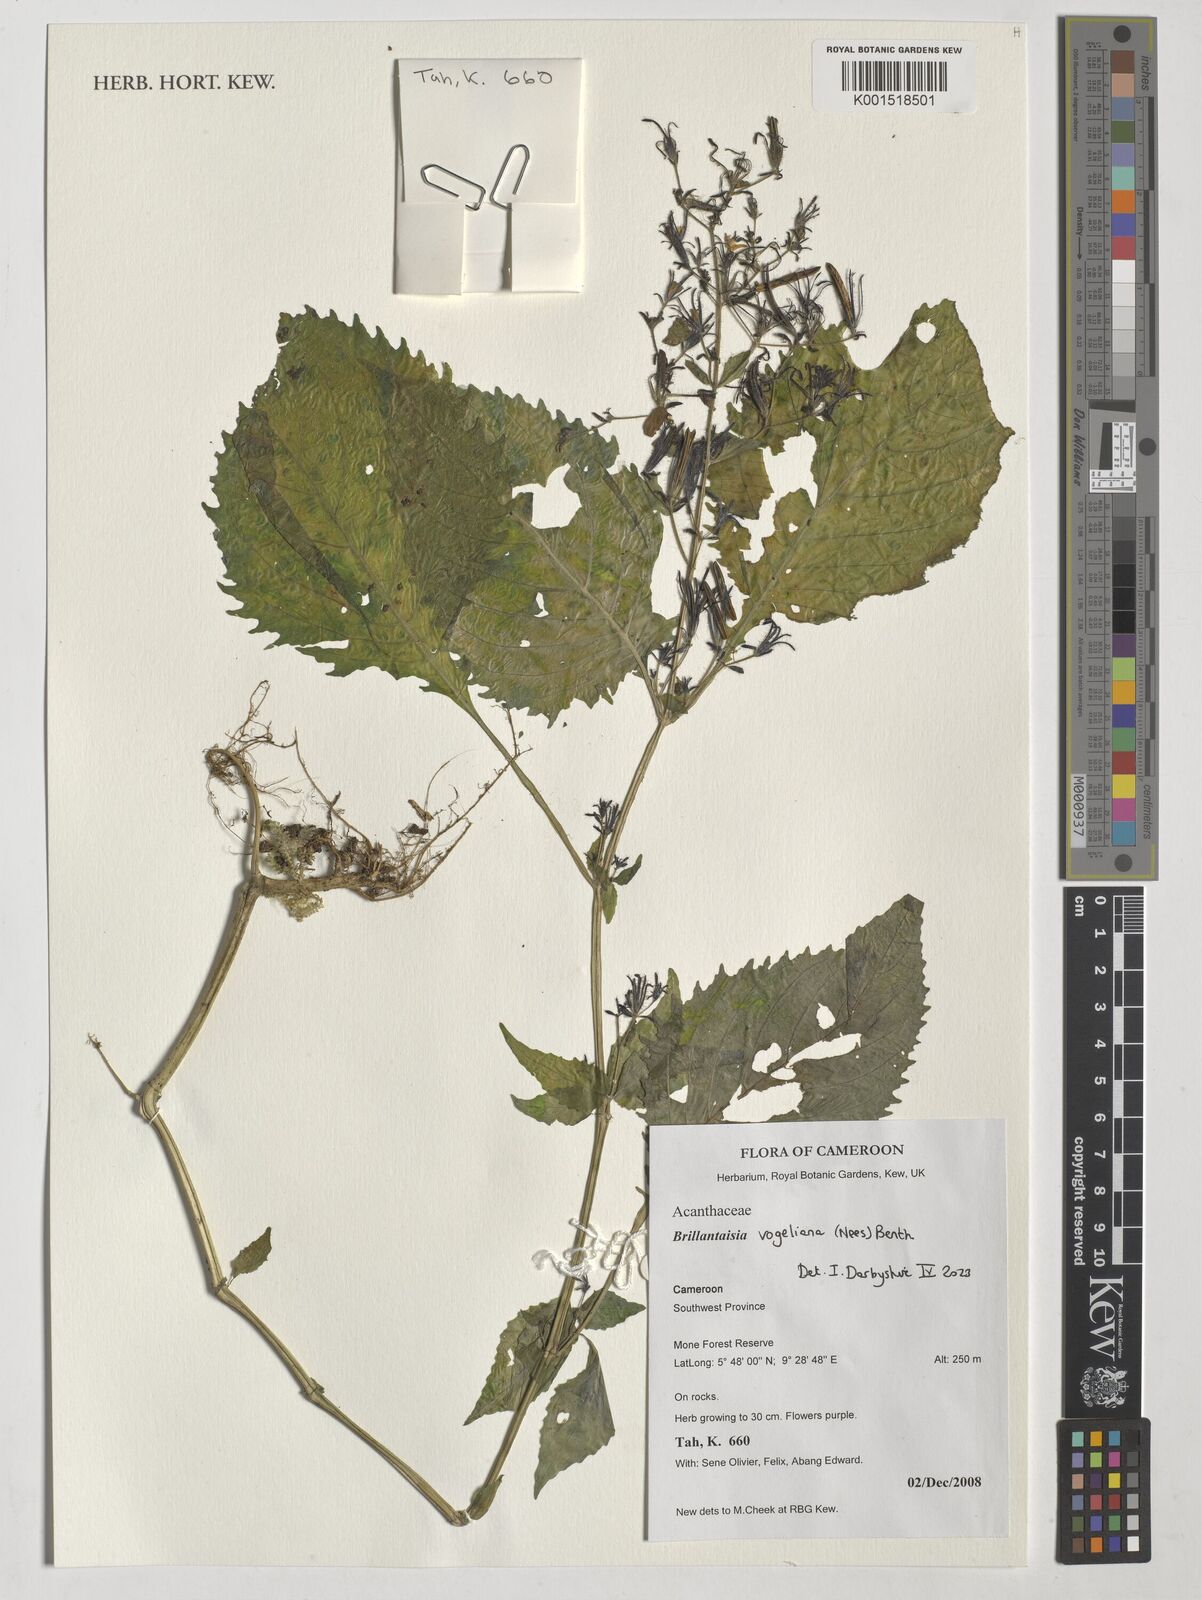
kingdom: Plantae
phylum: Tracheophyta
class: Magnoliopsida
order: Lamiales
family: Acanthaceae
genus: Brillantaisia
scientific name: Brillantaisia vogeliana
